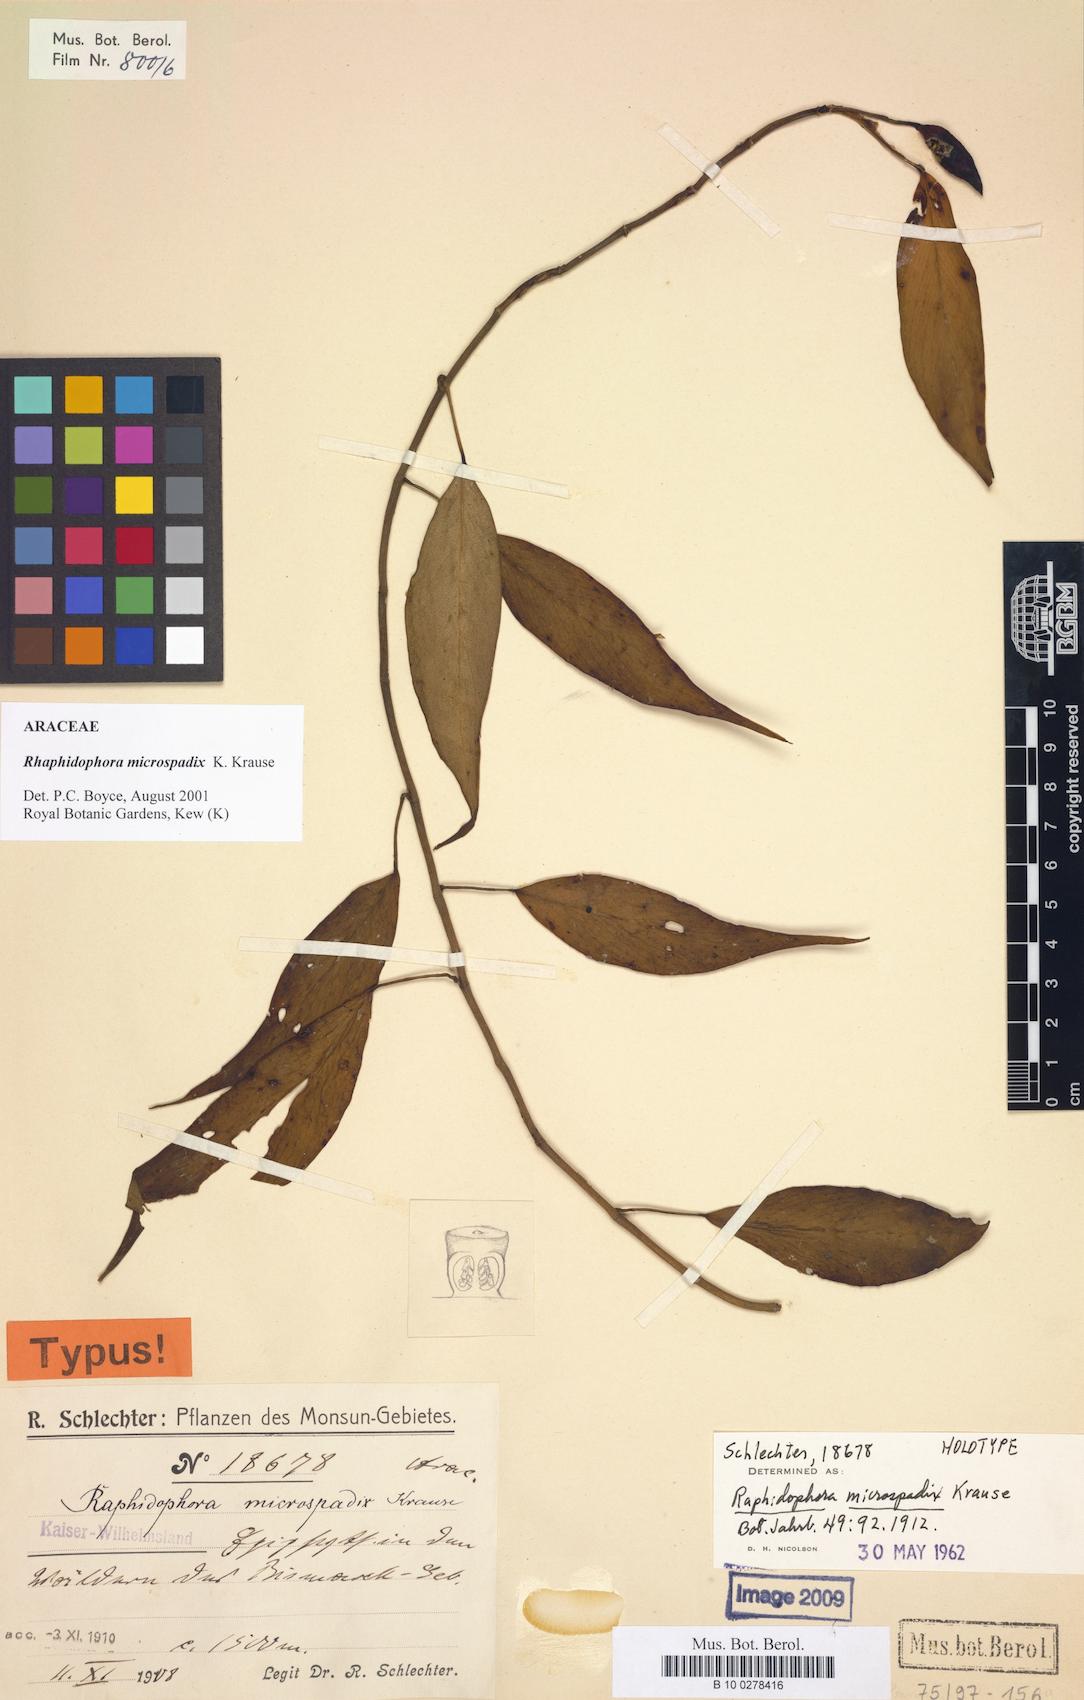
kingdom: Plantae
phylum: Tracheophyta
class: Liliopsida
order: Alismatales
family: Araceae
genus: Rhaphidophora
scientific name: Rhaphidophora microspadix
